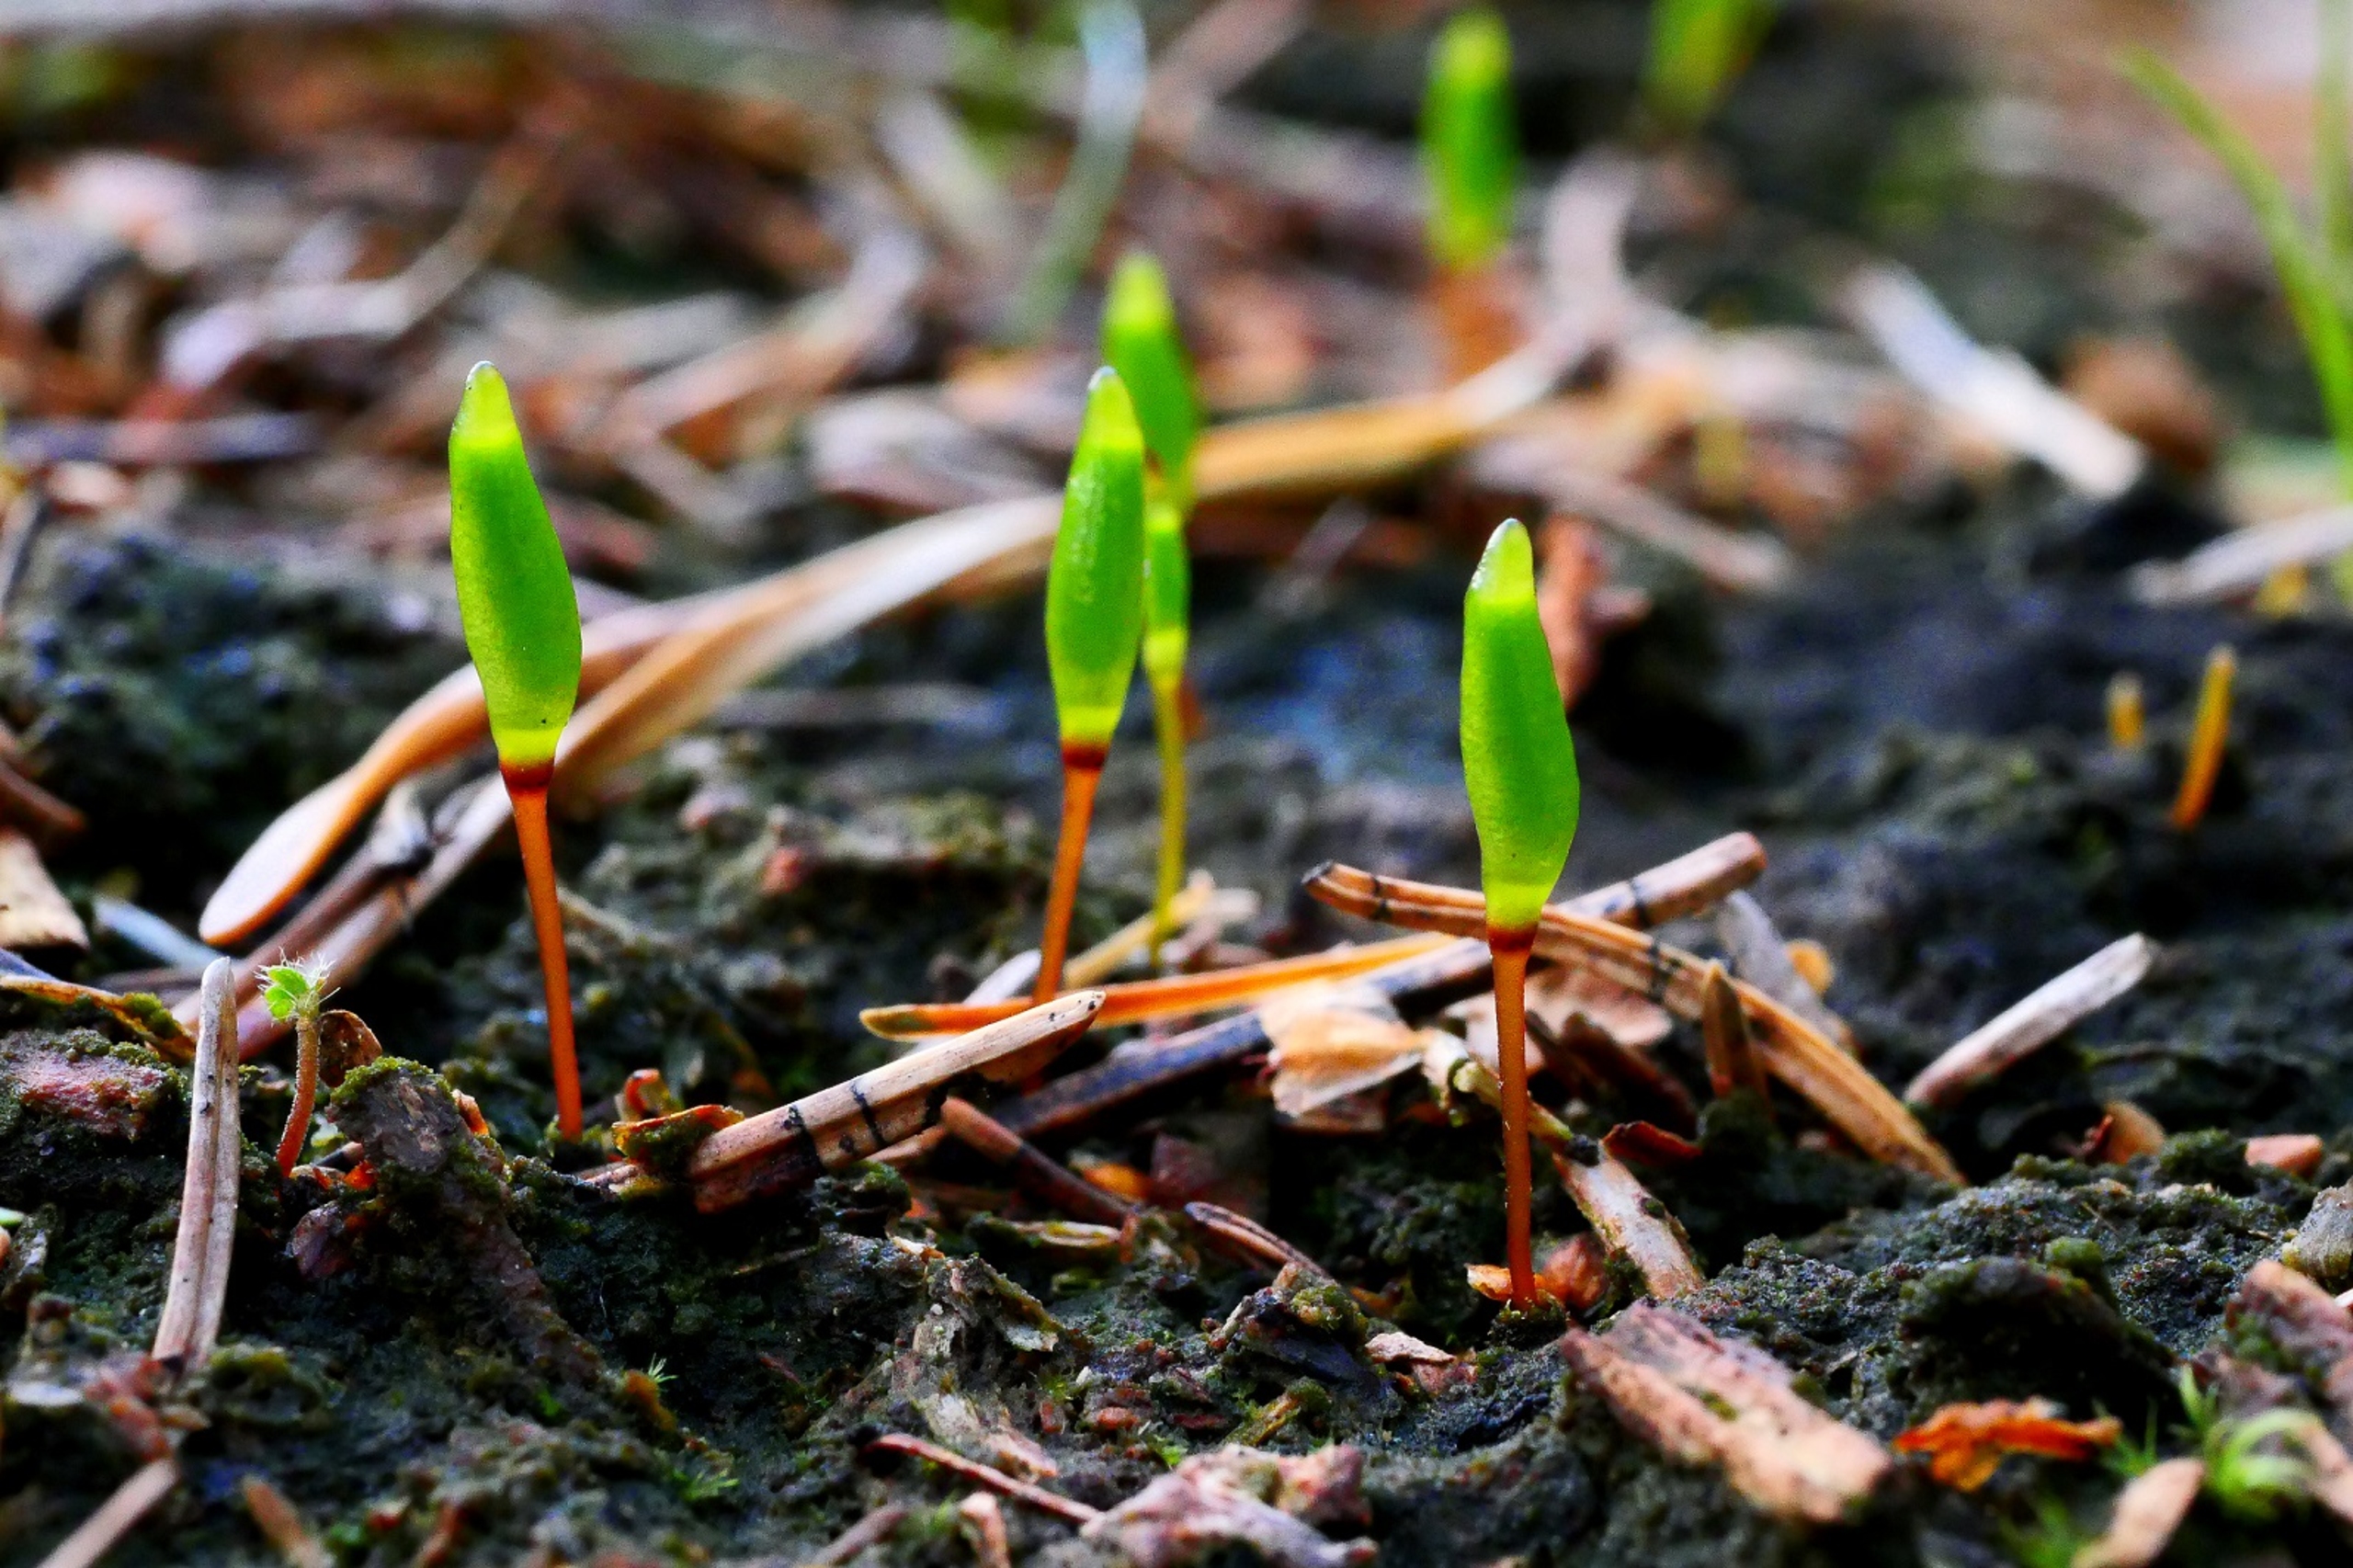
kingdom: Plantae
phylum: Bryophyta
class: Bryopsida
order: Buxbaumiales
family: Buxbaumiaceae
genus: Buxbaumia
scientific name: Buxbaumia viridis
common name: Grøn buxbaumia
